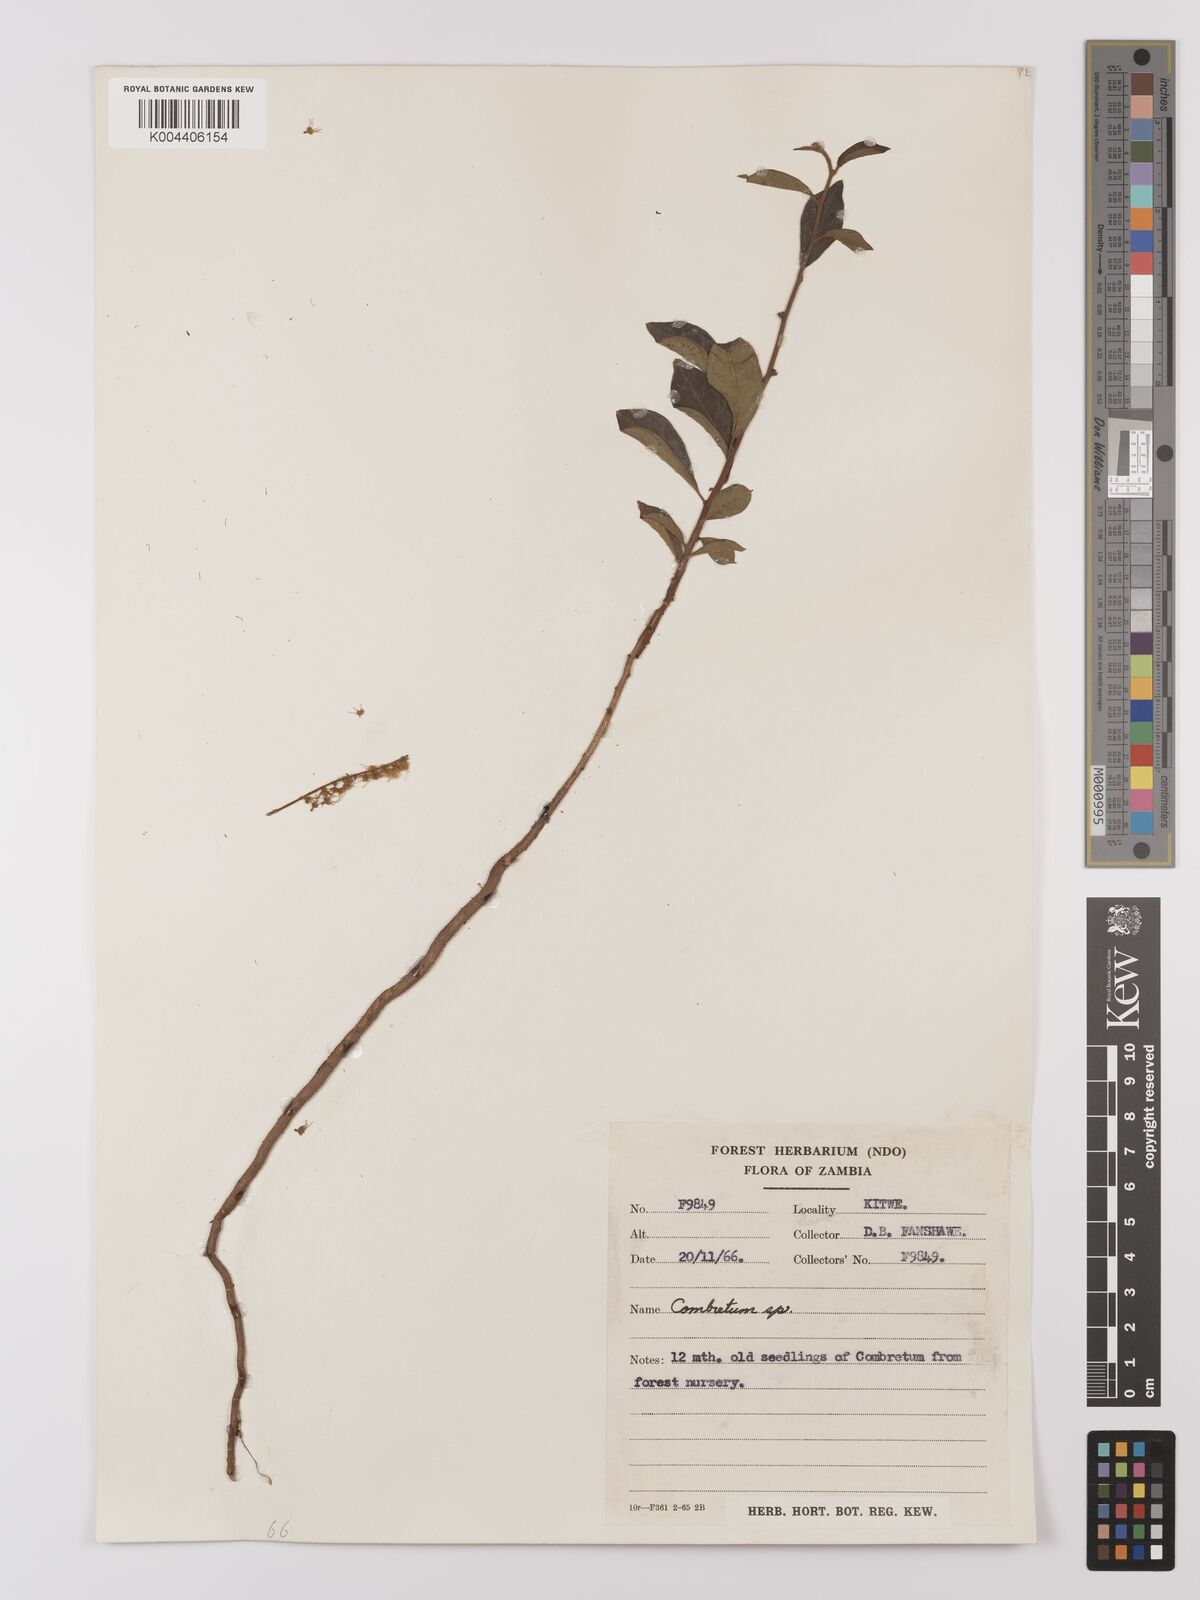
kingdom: Plantae
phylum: Tracheophyta
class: Magnoliopsida
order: Myrtales
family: Combretaceae
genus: Combretum
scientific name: Combretum
